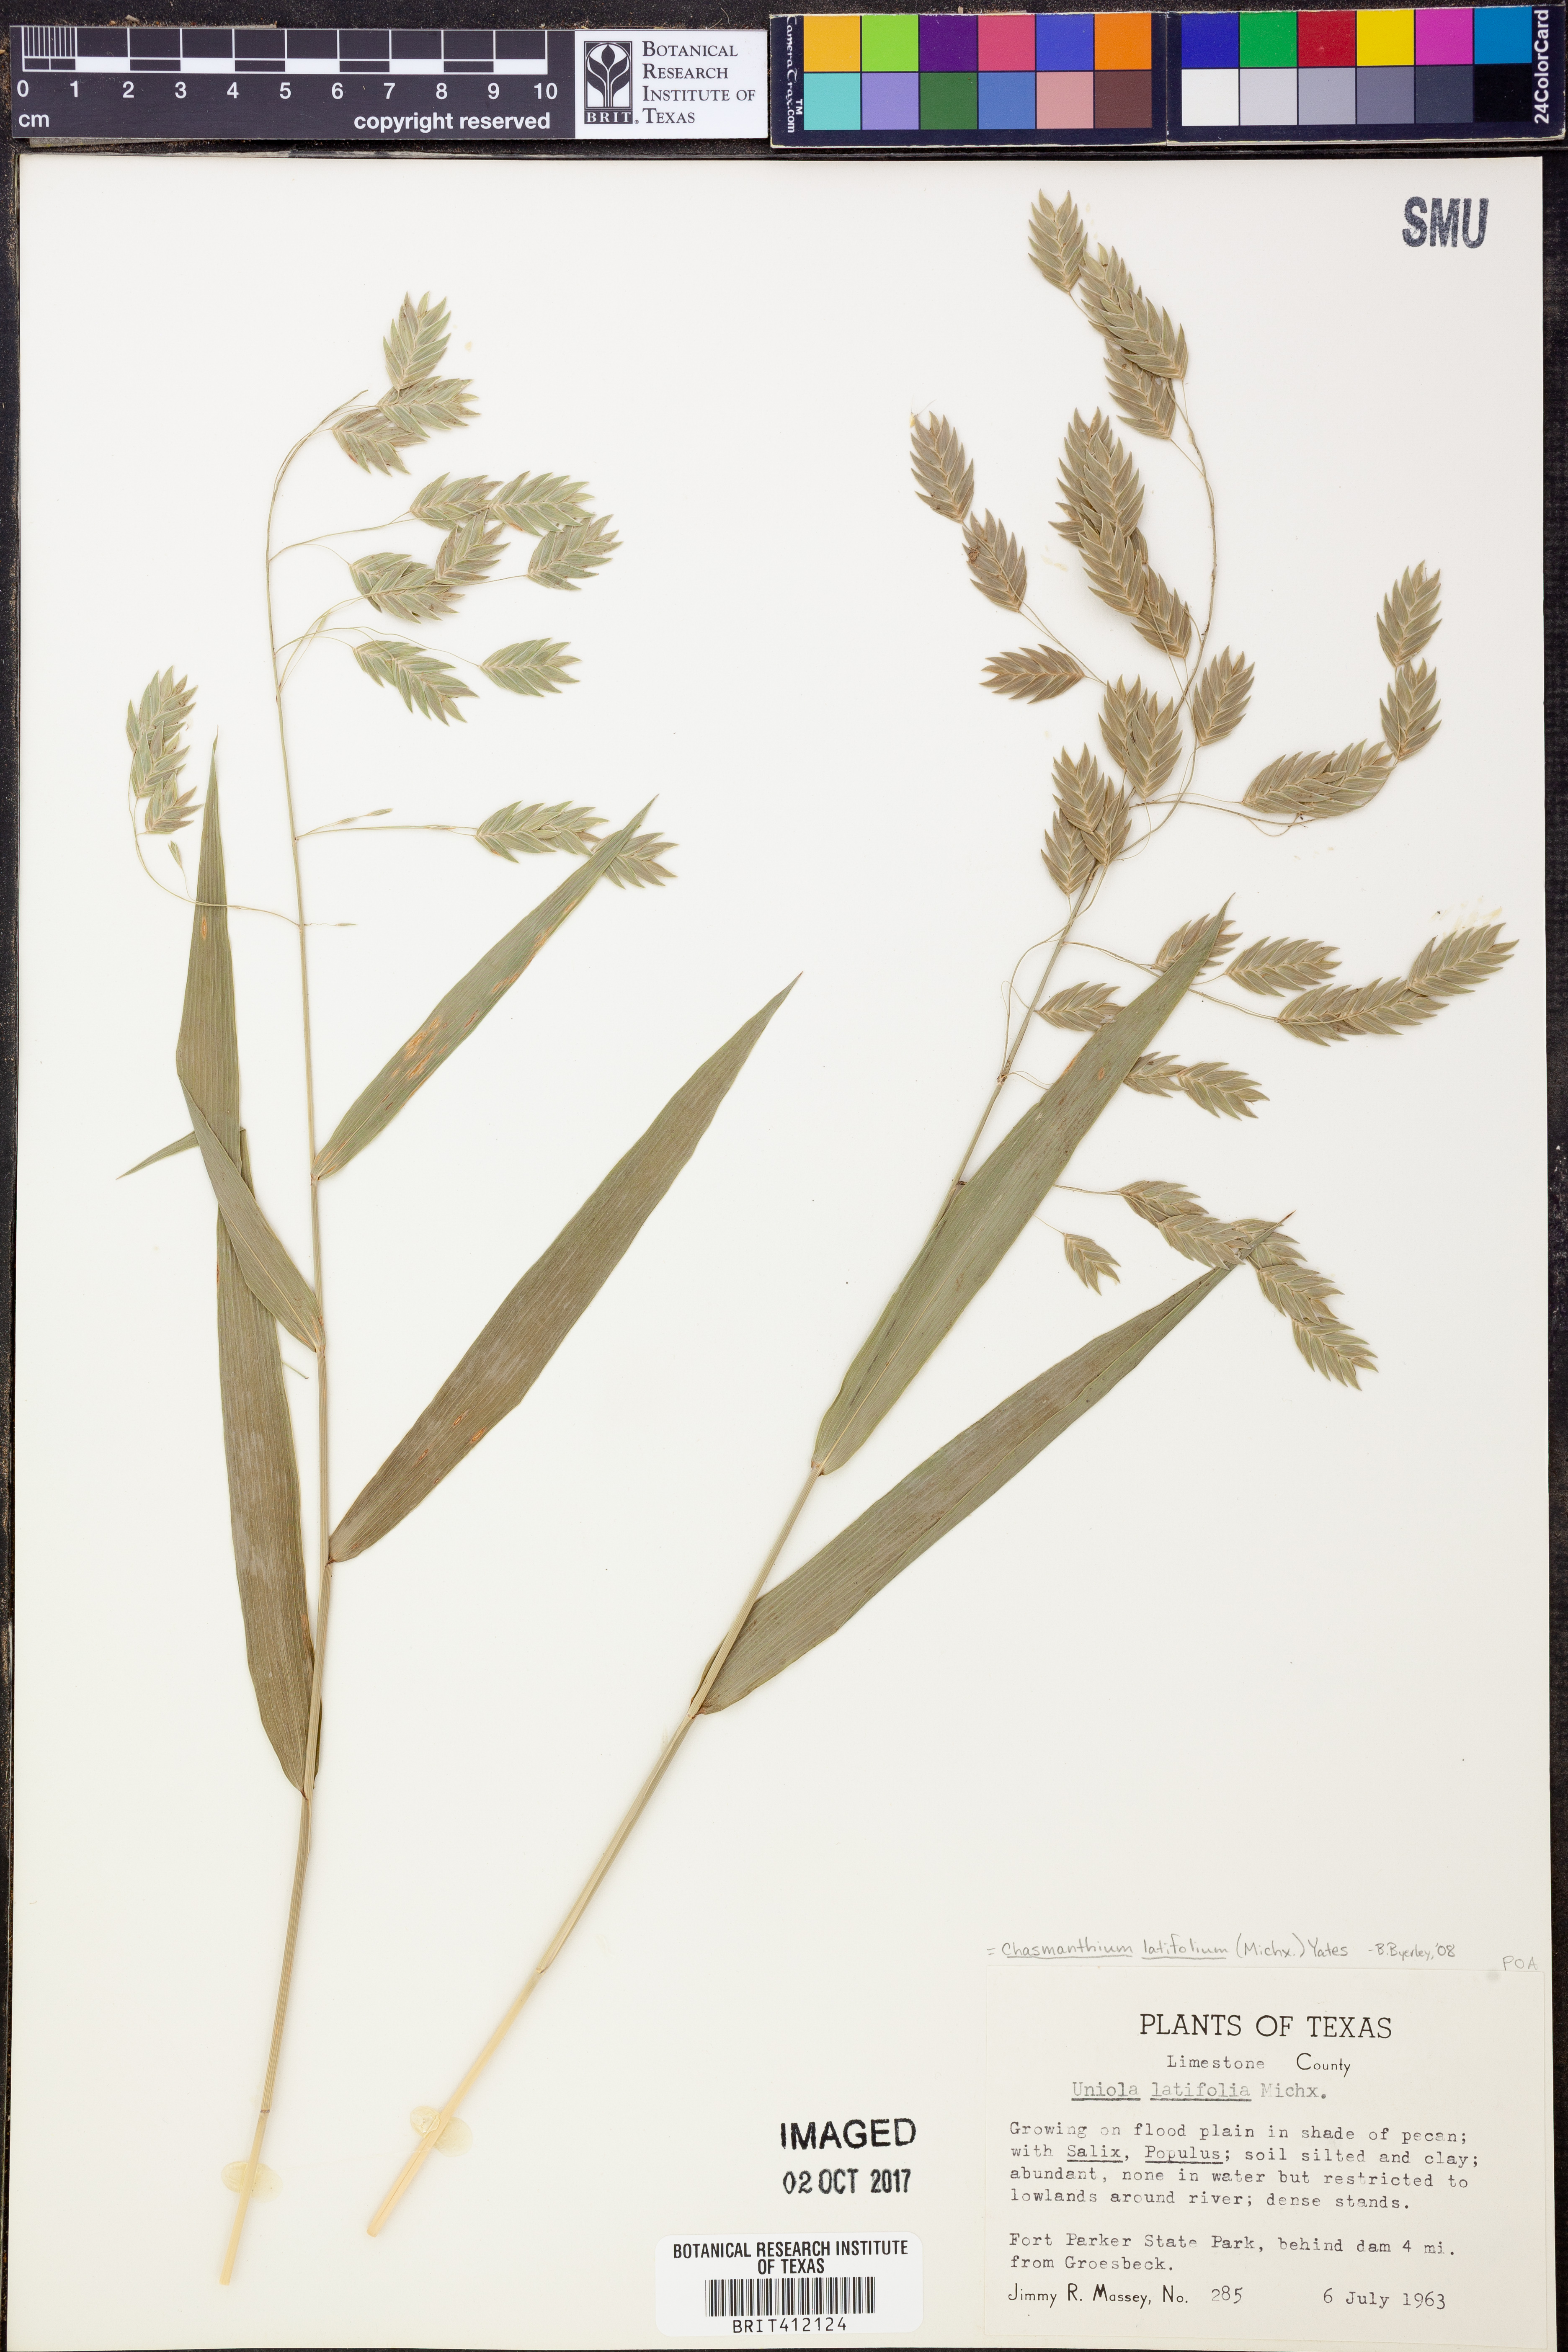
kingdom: Plantae
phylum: Tracheophyta
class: Liliopsida
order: Poales
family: Poaceae
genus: Chasmanthium
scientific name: Chasmanthium latifolium
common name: Broad-leaved chasmanthium
